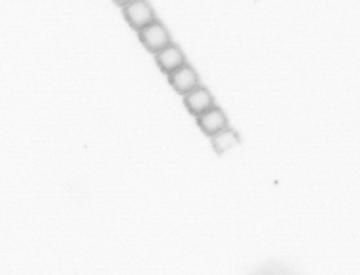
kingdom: Chromista
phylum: Ochrophyta
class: Bacillariophyceae
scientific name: Bacillariophyceae
